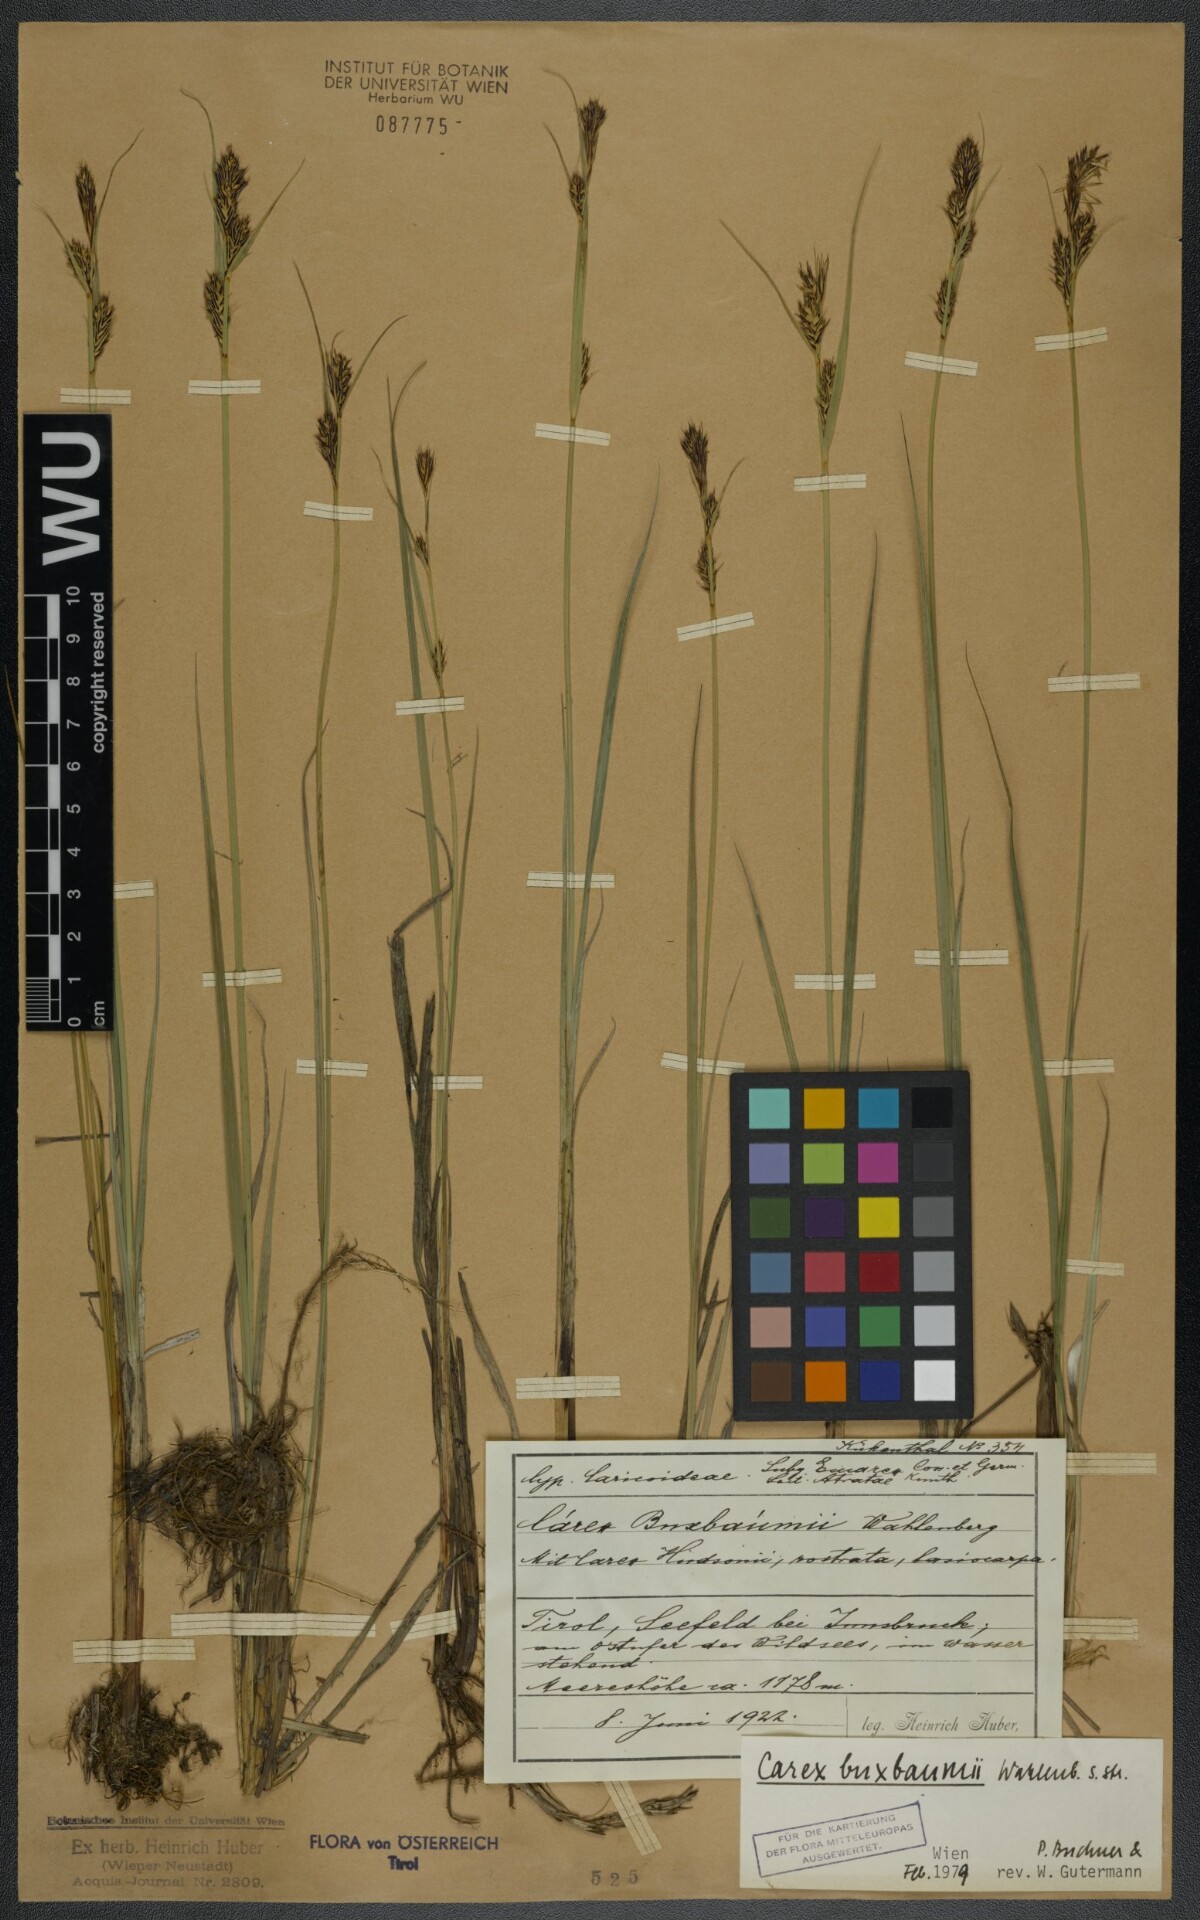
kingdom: Plantae
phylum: Tracheophyta
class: Liliopsida
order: Poales
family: Cyperaceae
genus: Carex
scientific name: Carex buxbaumii
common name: Club sedge
